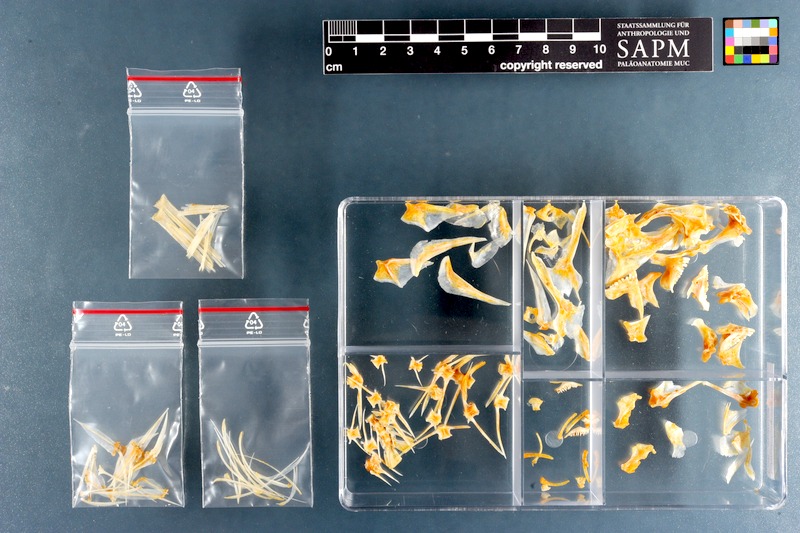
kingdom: Animalia
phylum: Chordata
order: Perciformes
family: Sparidae
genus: Rhabdosargus
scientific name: Rhabdosargus holubi
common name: Cape stumpnose
